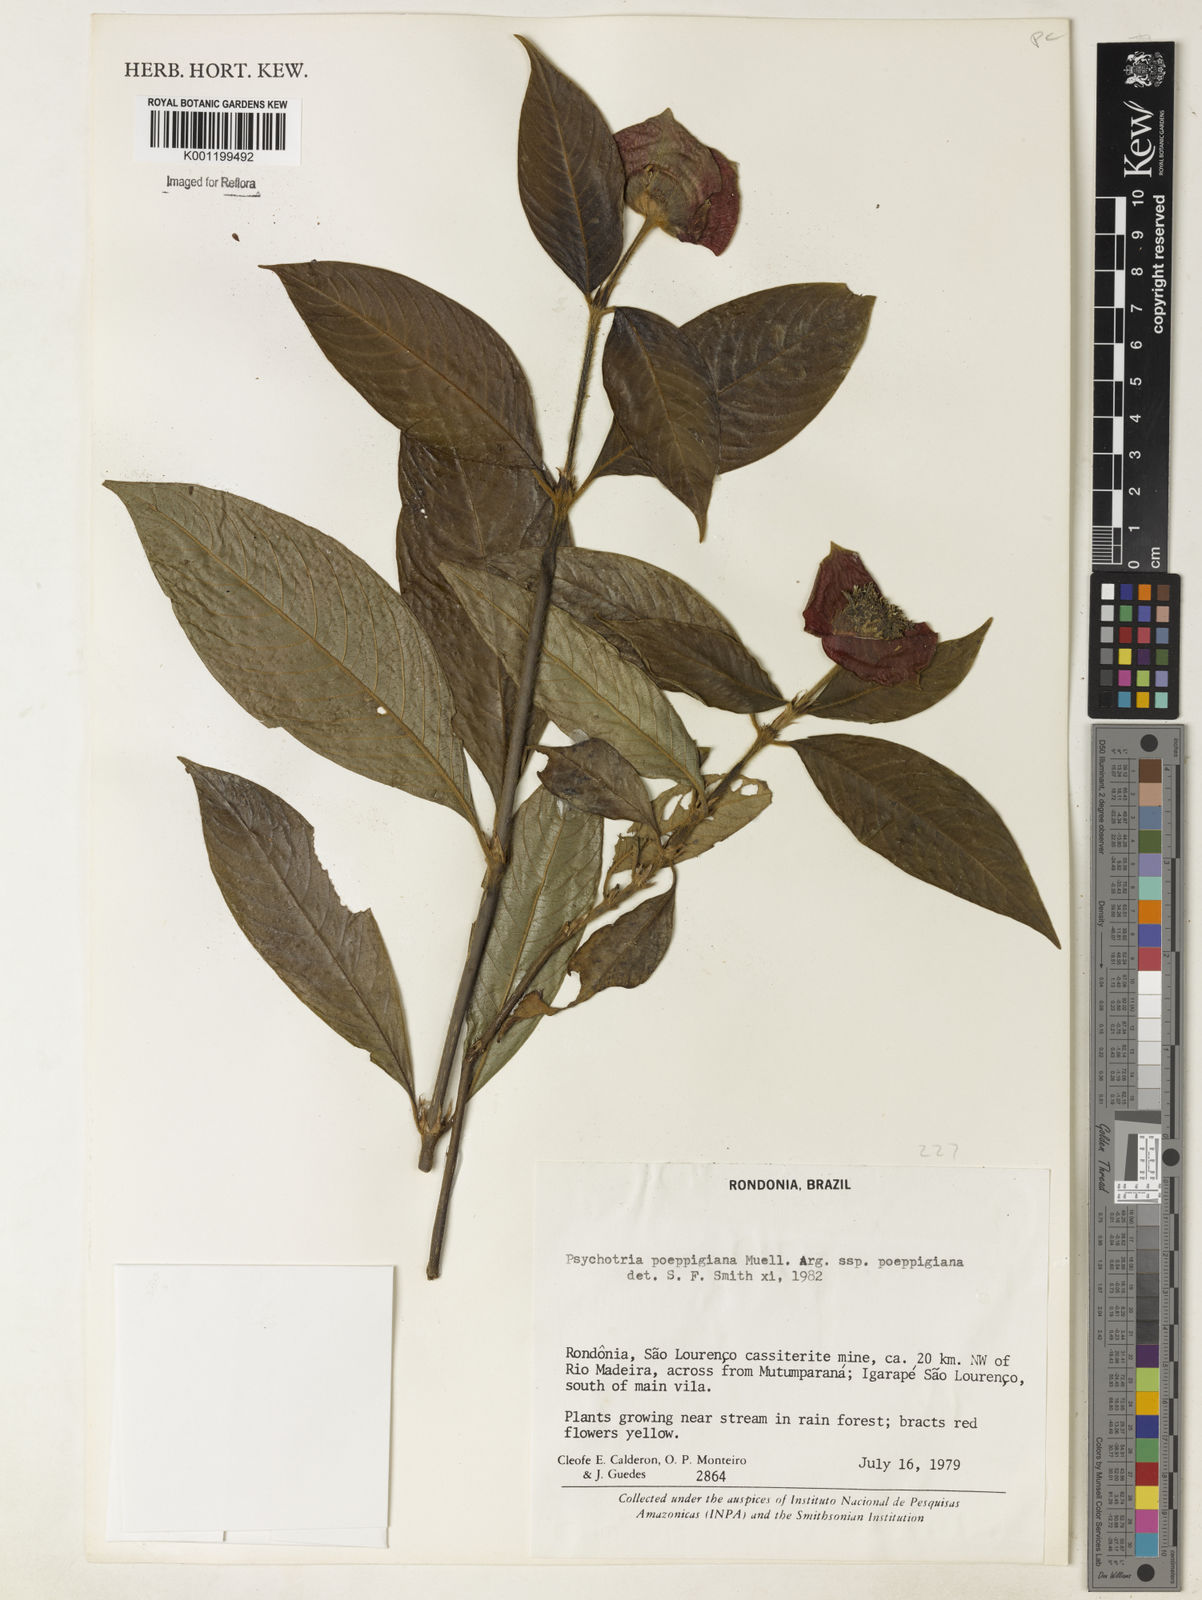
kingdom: Plantae
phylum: Tracheophyta
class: Magnoliopsida
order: Gentianales
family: Rubiaceae
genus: Psychotria
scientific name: Psychotria
